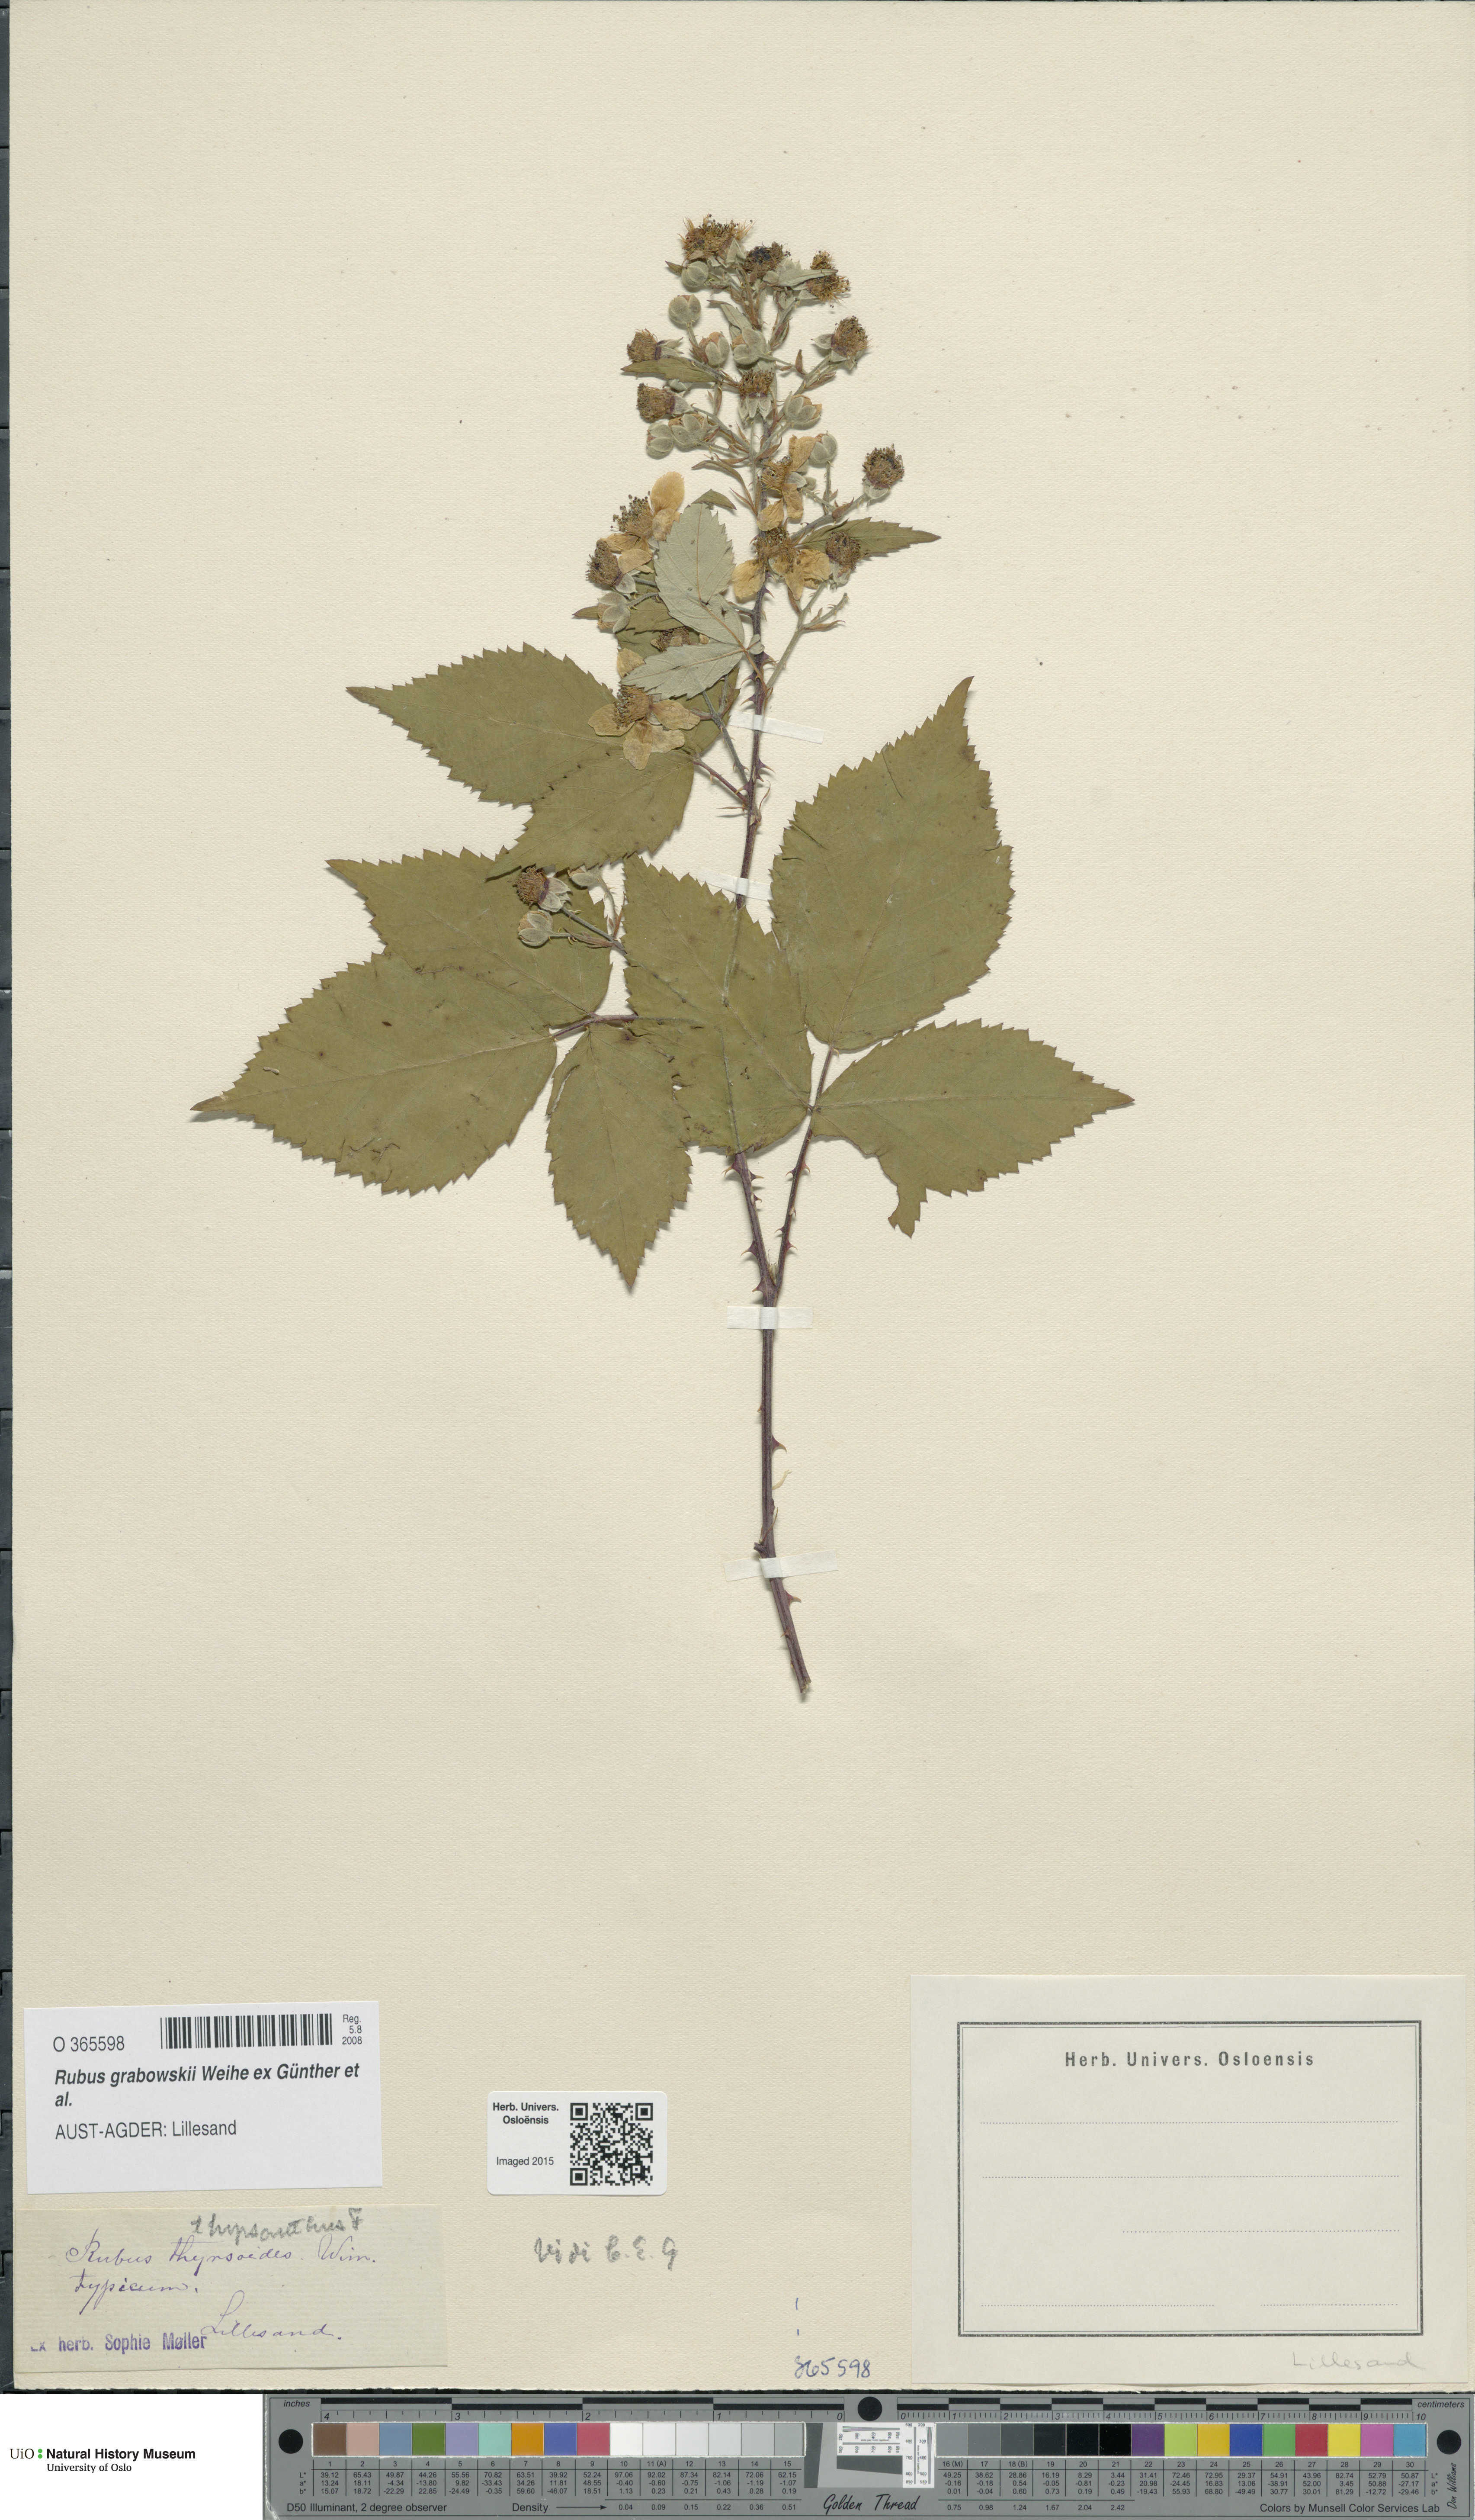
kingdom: Plantae
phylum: Tracheophyta
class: Magnoliopsida
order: Rosales
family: Rosaceae
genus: Rubus
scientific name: Rubus grabowskii
